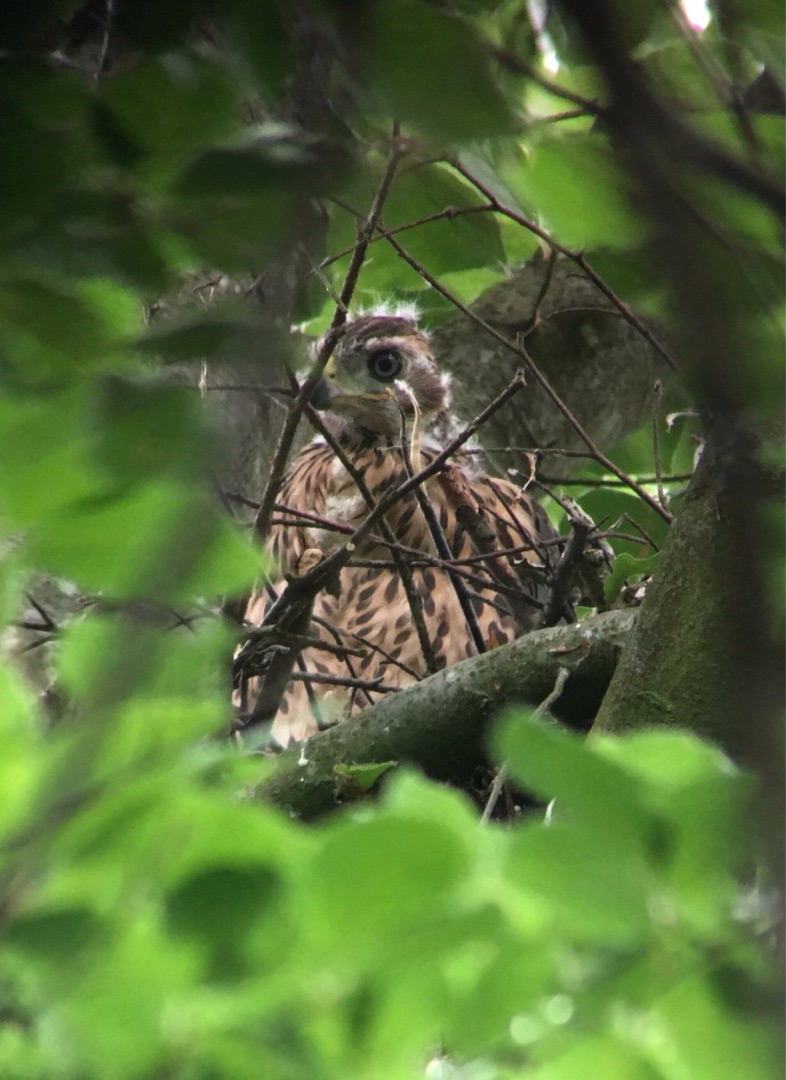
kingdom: Animalia
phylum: Chordata
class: Aves
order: Accipitriformes
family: Accipitridae
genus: Accipiter
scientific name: Accipiter gentilis
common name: Duehøg
